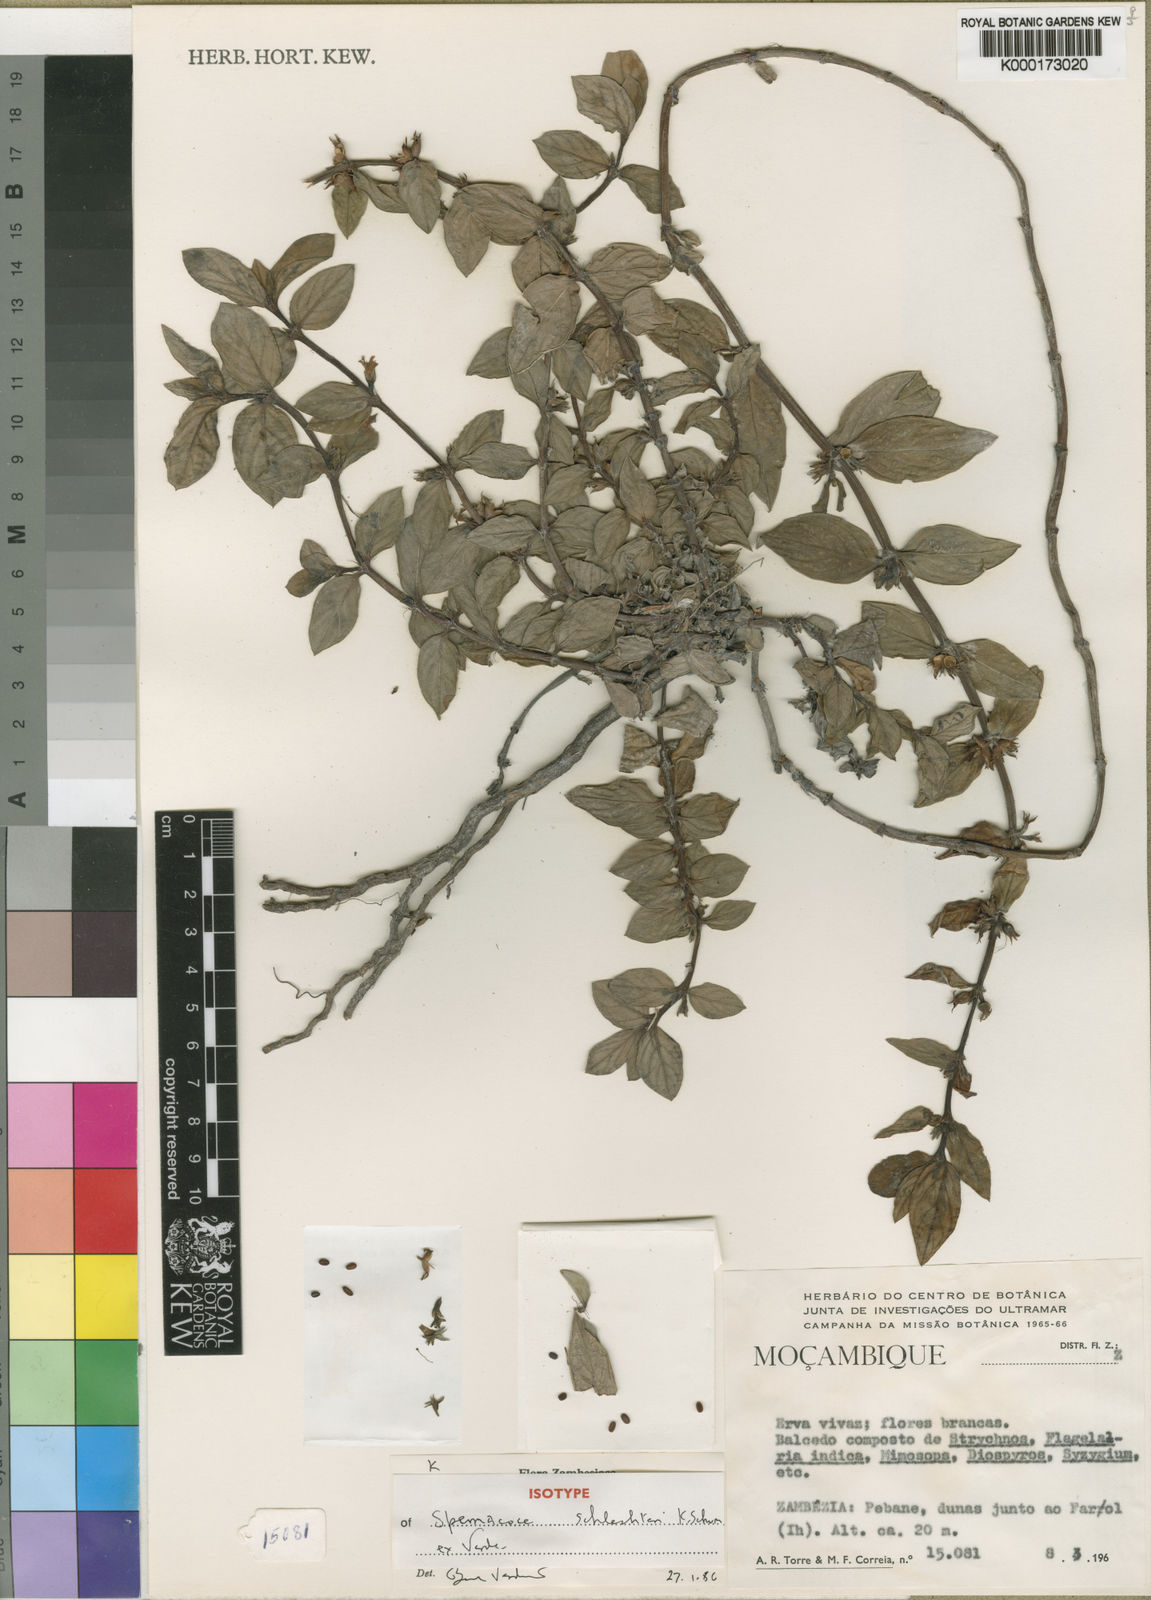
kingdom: Plantae
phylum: Tracheophyta
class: Magnoliopsida
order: Gentianales
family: Rubiaceae
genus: Spermacoce
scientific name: Spermacoce schlechteri
